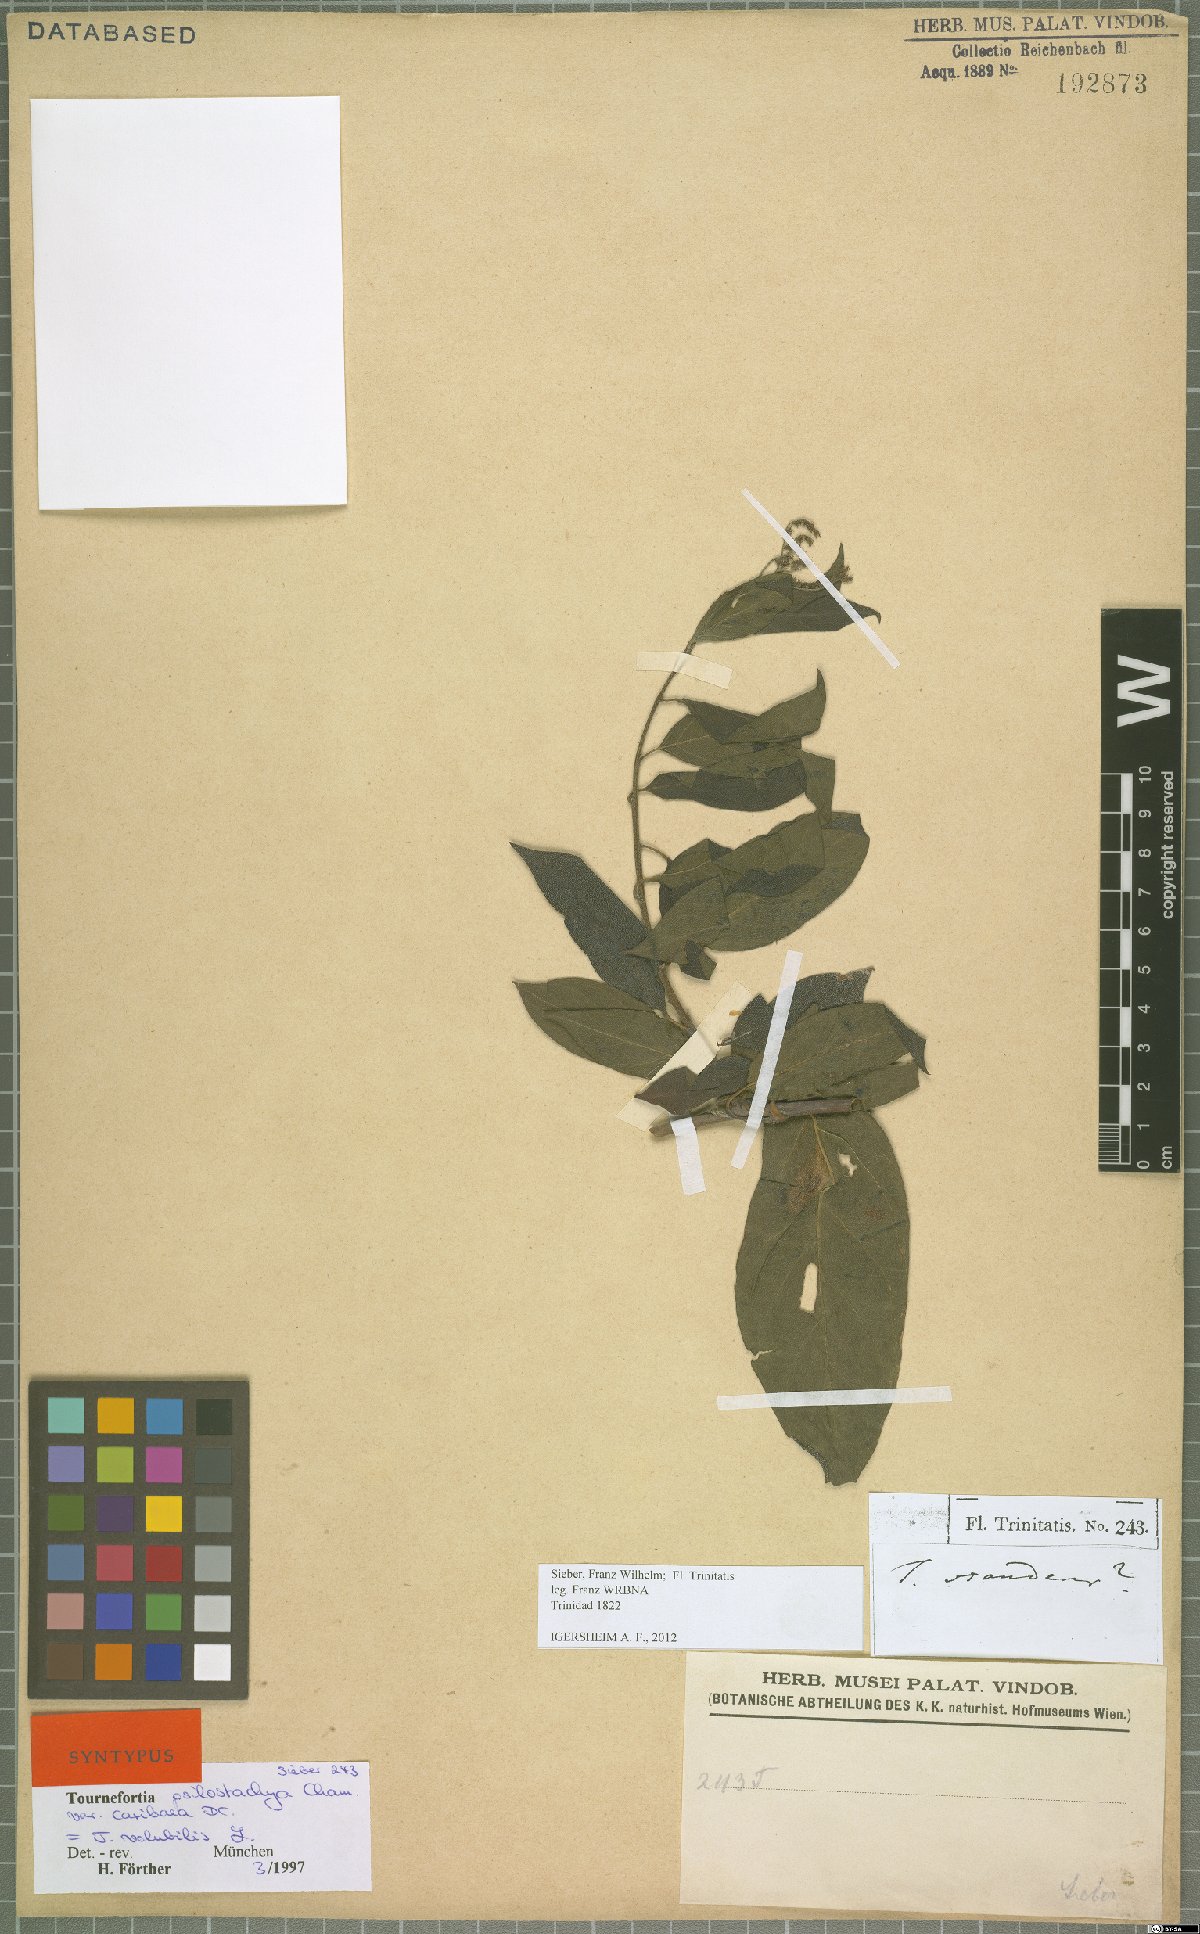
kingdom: Plantae
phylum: Tracheophyta
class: Magnoliopsida
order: Boraginales
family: Heliotropiaceae
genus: Myriopus
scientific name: Myriopus volubilis
